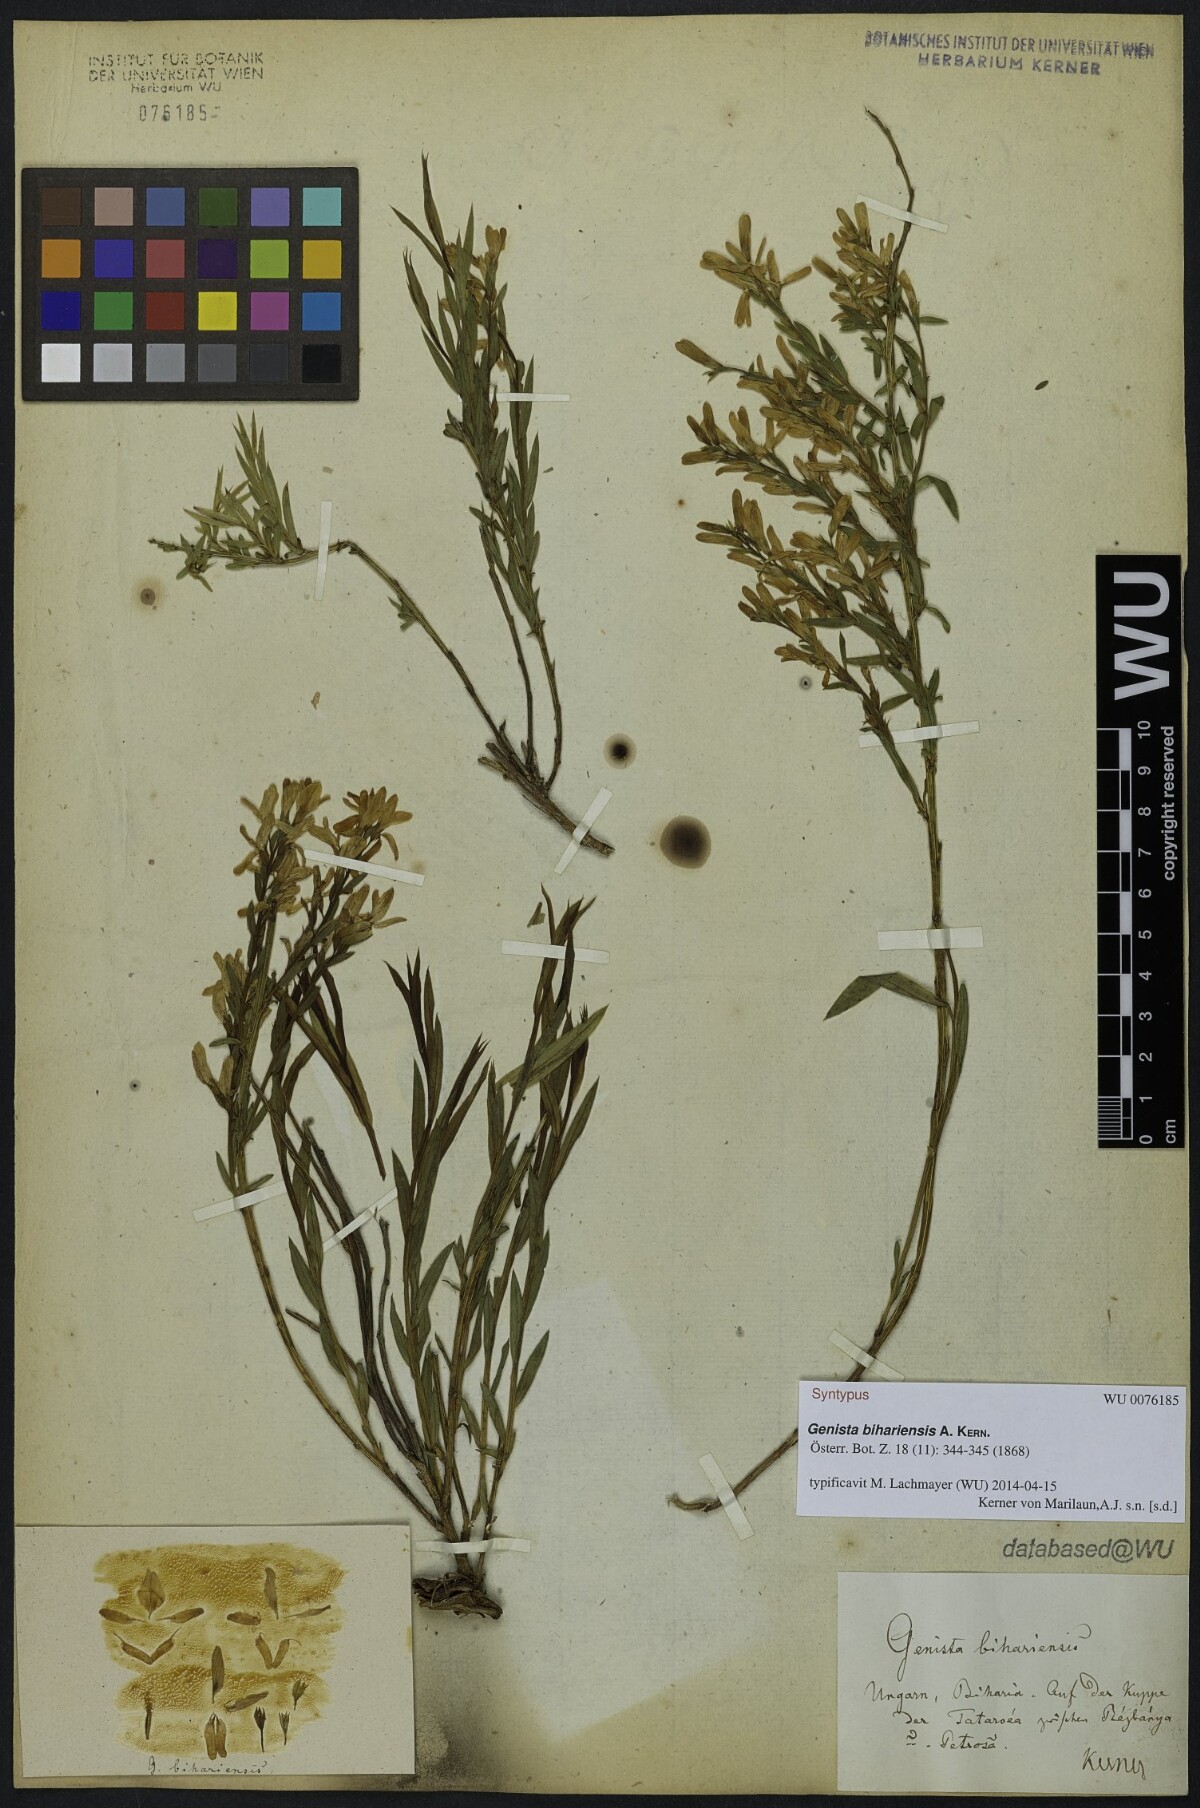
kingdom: Plantae
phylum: Tracheophyta
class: Magnoliopsida
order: Fabales
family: Fabaceae
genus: Genista
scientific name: Genista
